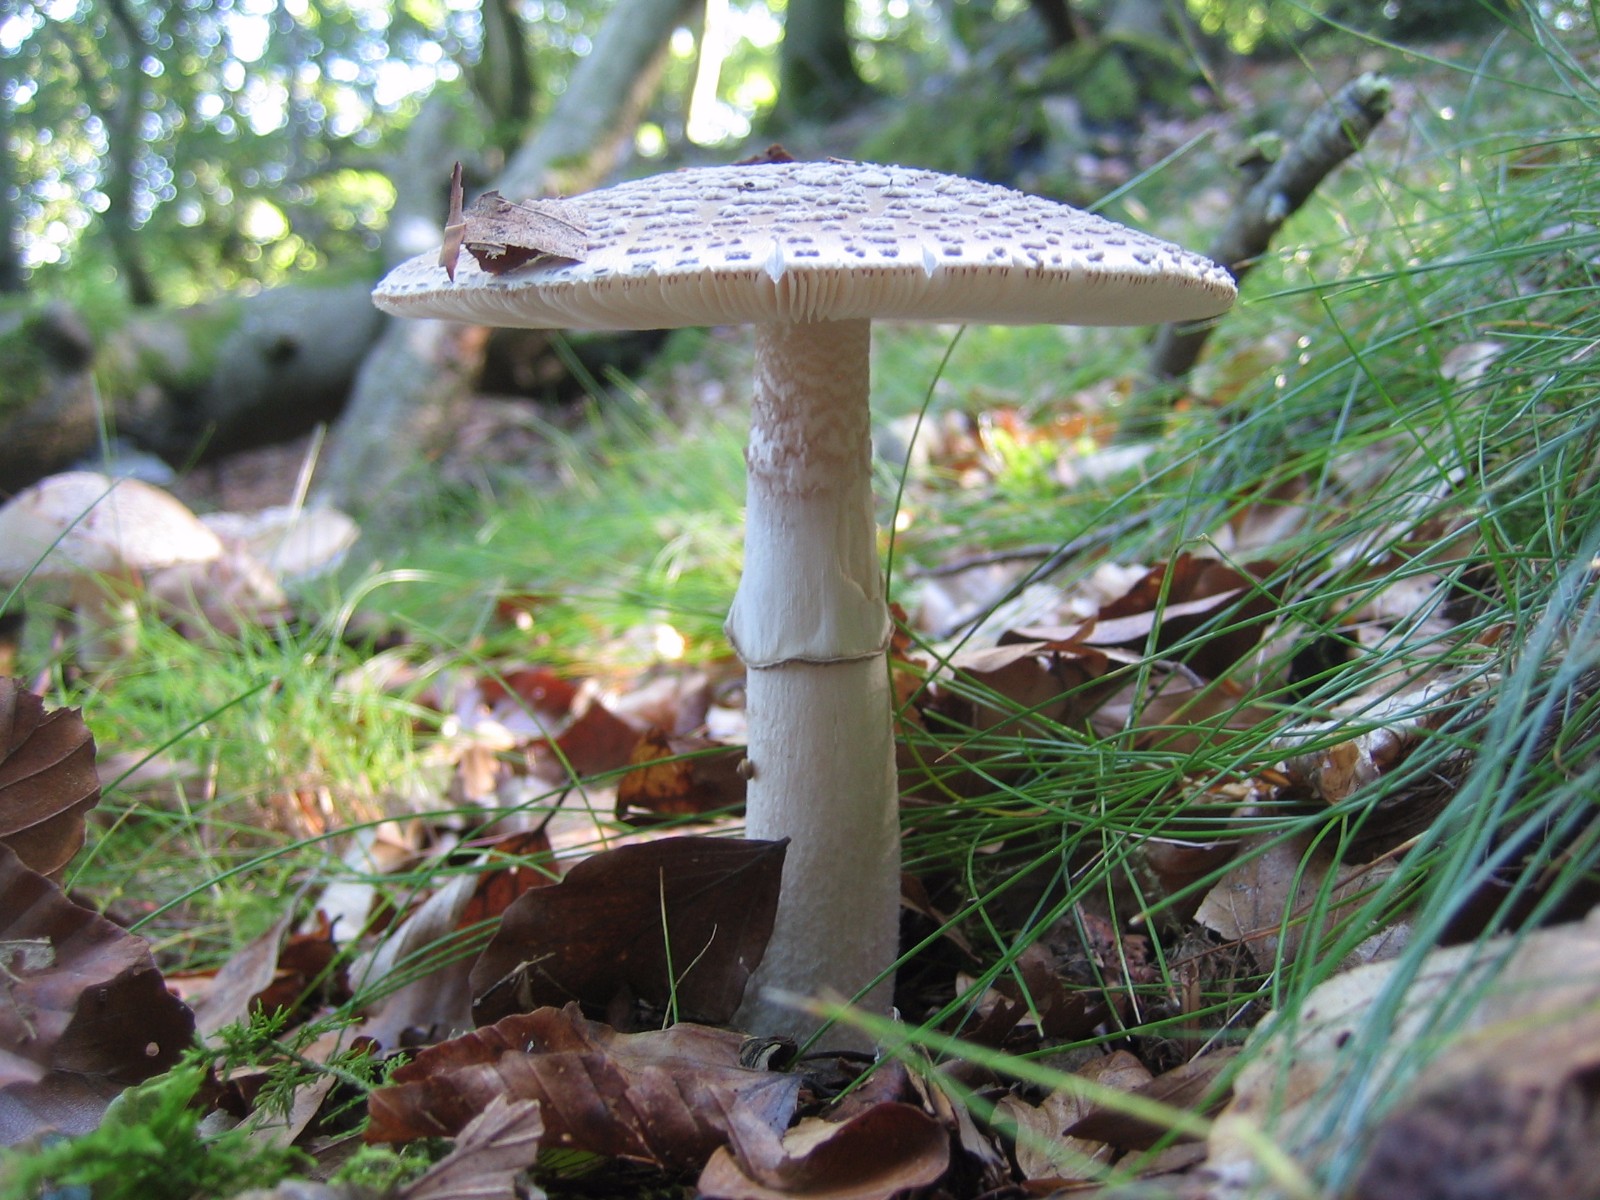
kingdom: Fungi
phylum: Basidiomycota
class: Agaricomycetes
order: Agaricales
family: Amanitaceae
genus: Amanita
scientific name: Amanita
